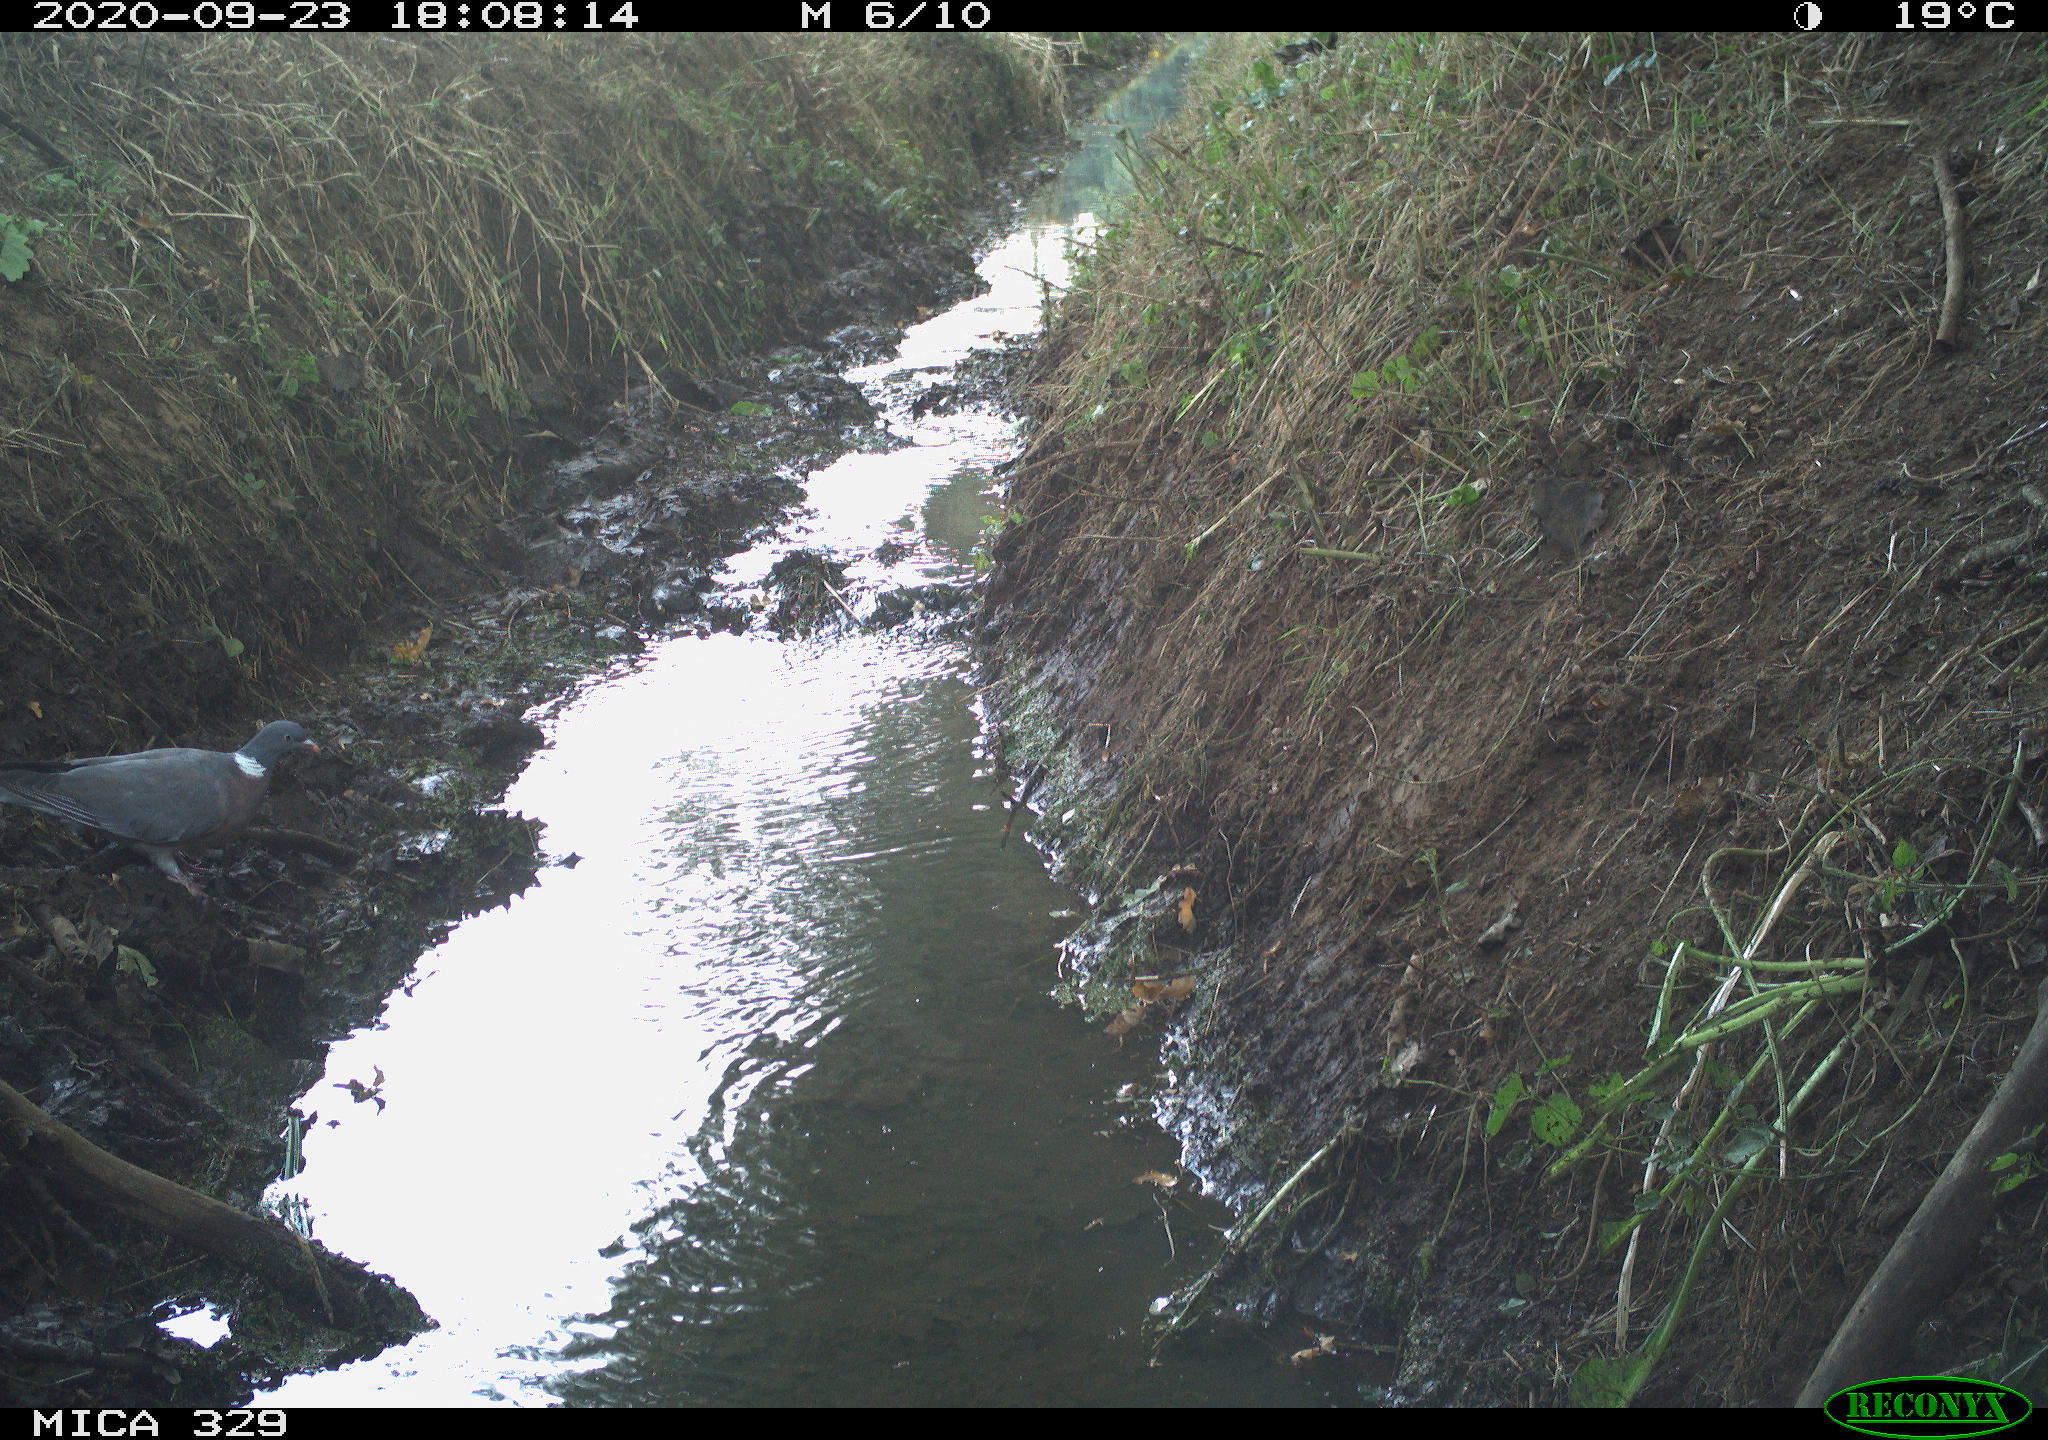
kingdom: Animalia
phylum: Chordata
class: Aves
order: Columbiformes
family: Columbidae
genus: Columba
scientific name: Columba palumbus
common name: Common wood pigeon
